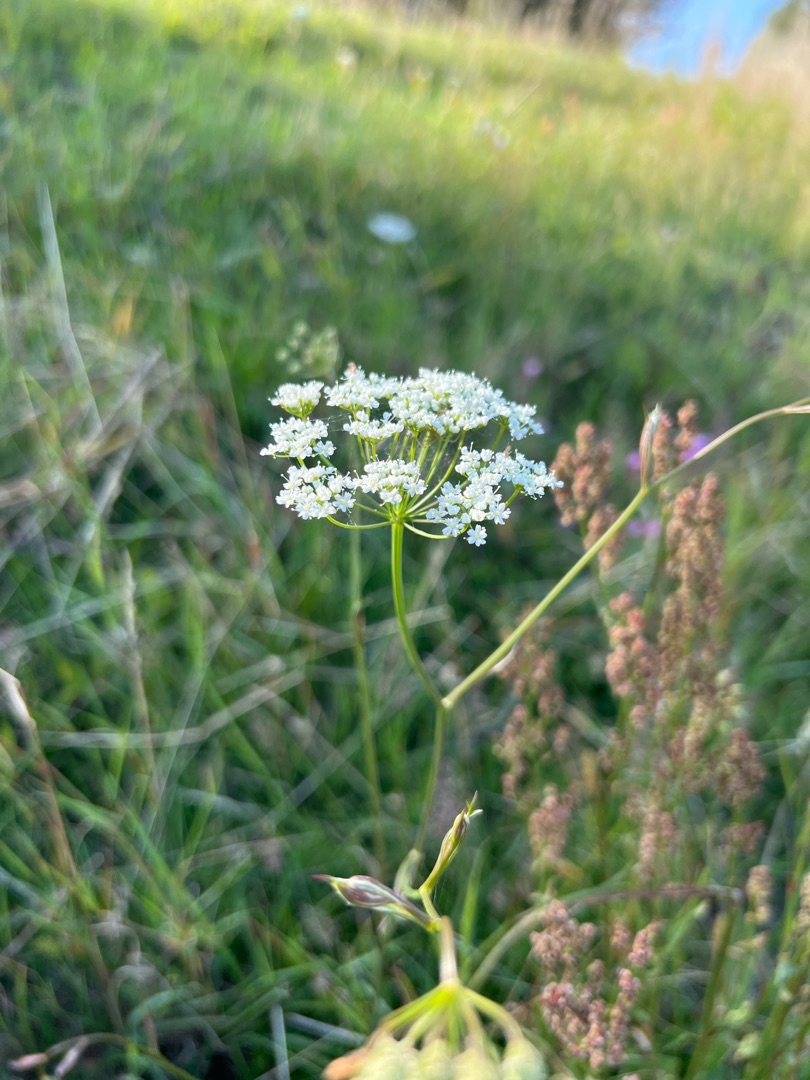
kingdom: Plantae
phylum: Tracheophyta
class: Magnoliopsida
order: Apiales
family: Apiaceae
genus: Pimpinella
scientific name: Pimpinella saxifraga
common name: Almindelig pimpinelle
